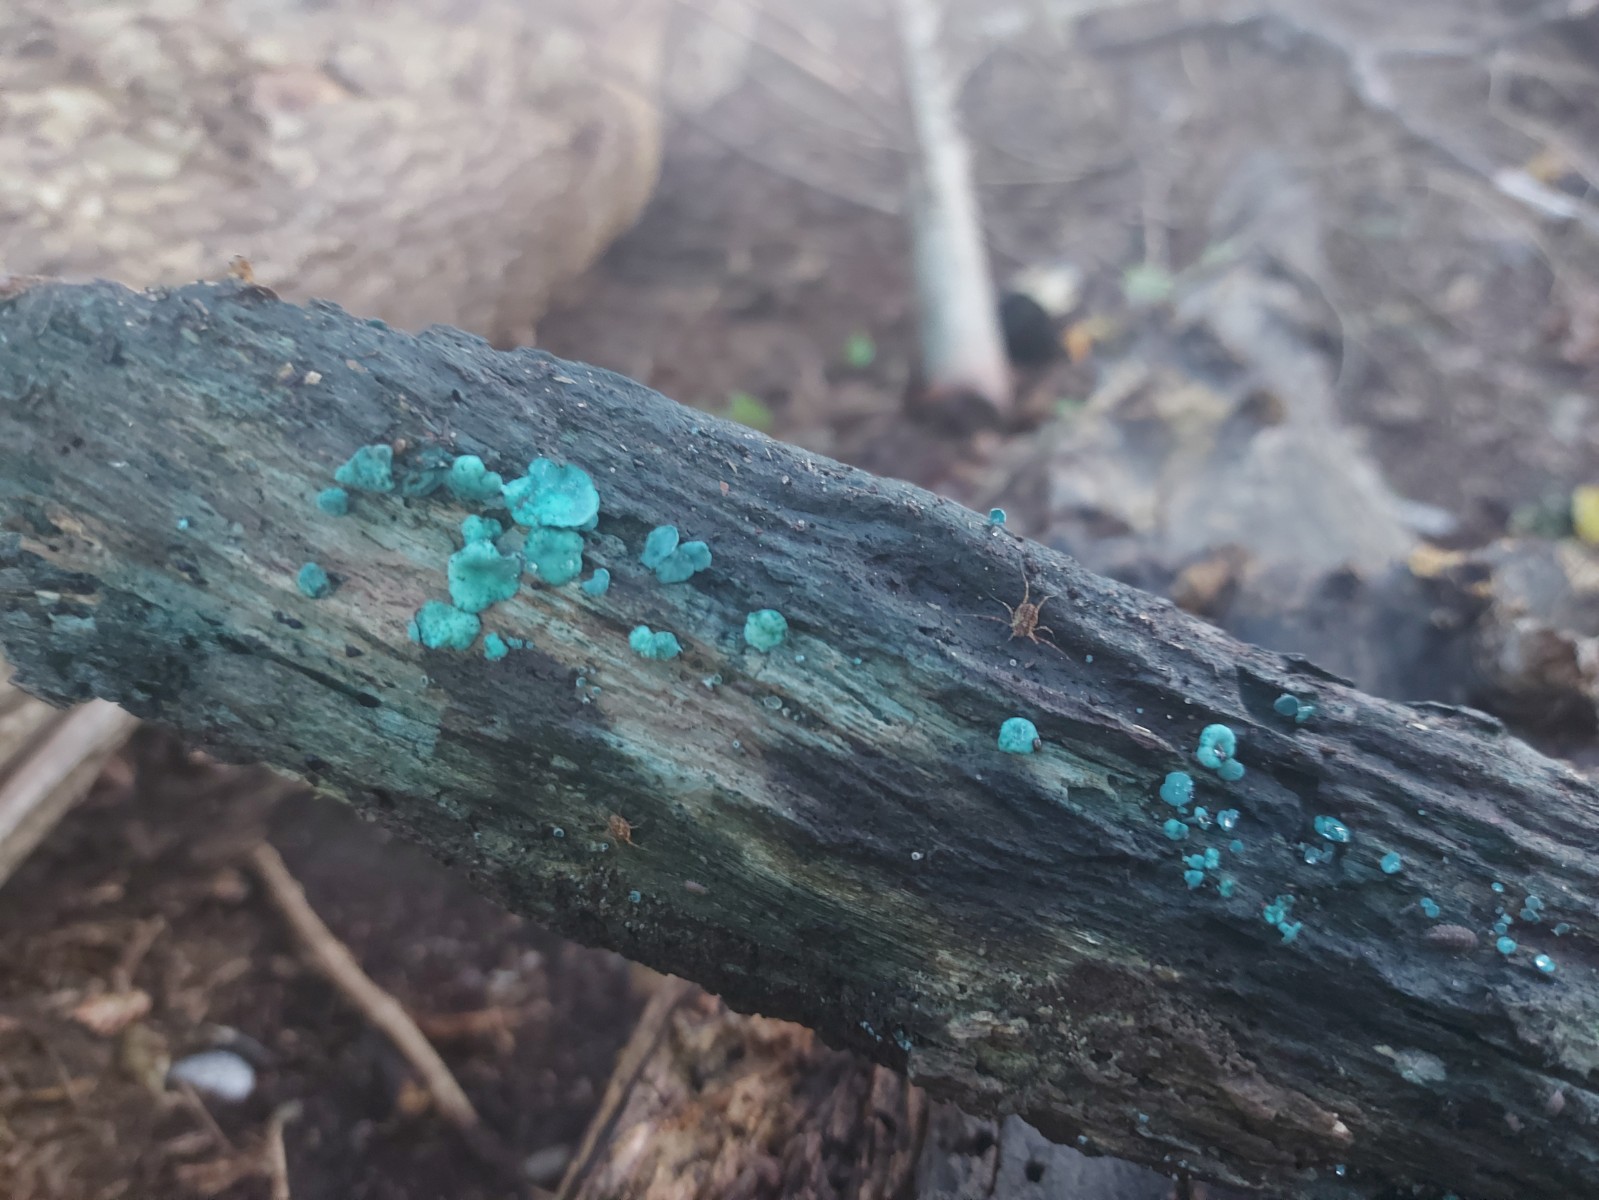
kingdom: Fungi
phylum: Ascomycota
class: Leotiomycetes
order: Helotiales
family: Chlorociboriaceae
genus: Chlorociboria
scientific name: Chlorociboria aeruginascens
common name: almindelig grønskive
